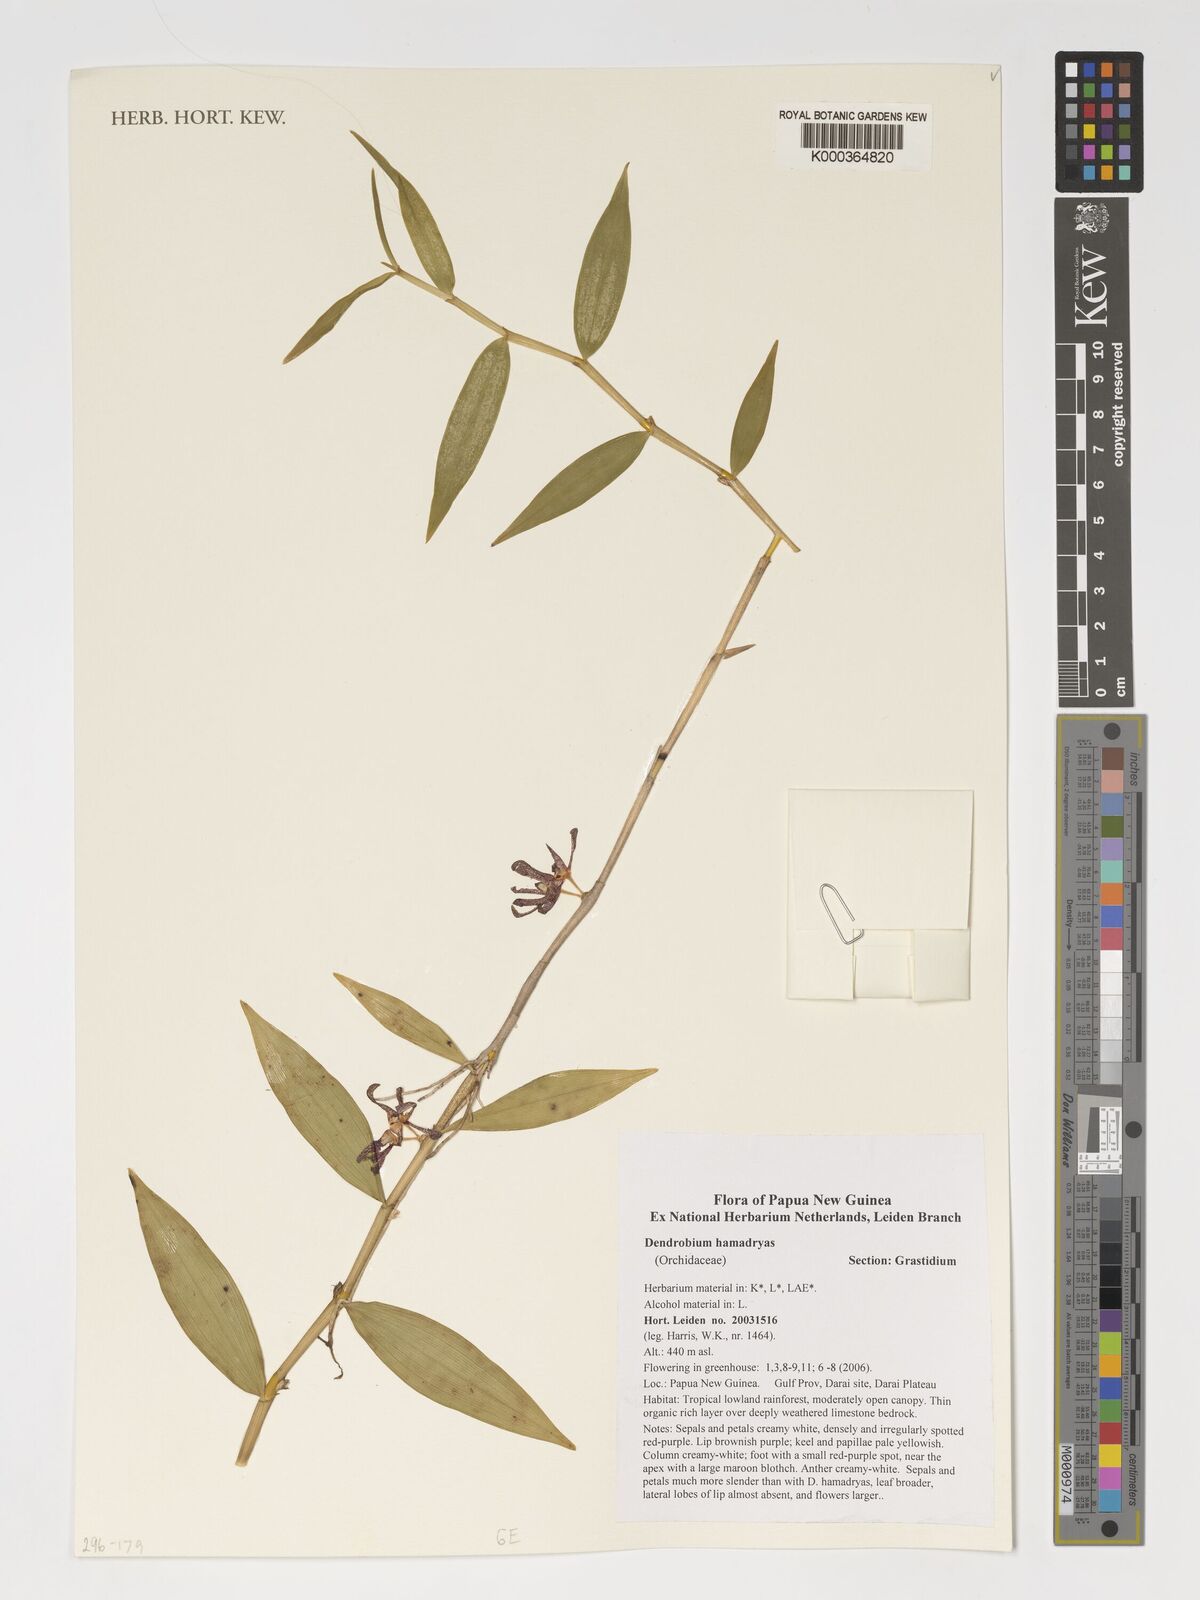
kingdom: Plantae
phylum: Tracheophyta
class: Liliopsida
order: Asparagales
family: Orchidaceae
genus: Dendrobium
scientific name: Dendrobium hamadryas
